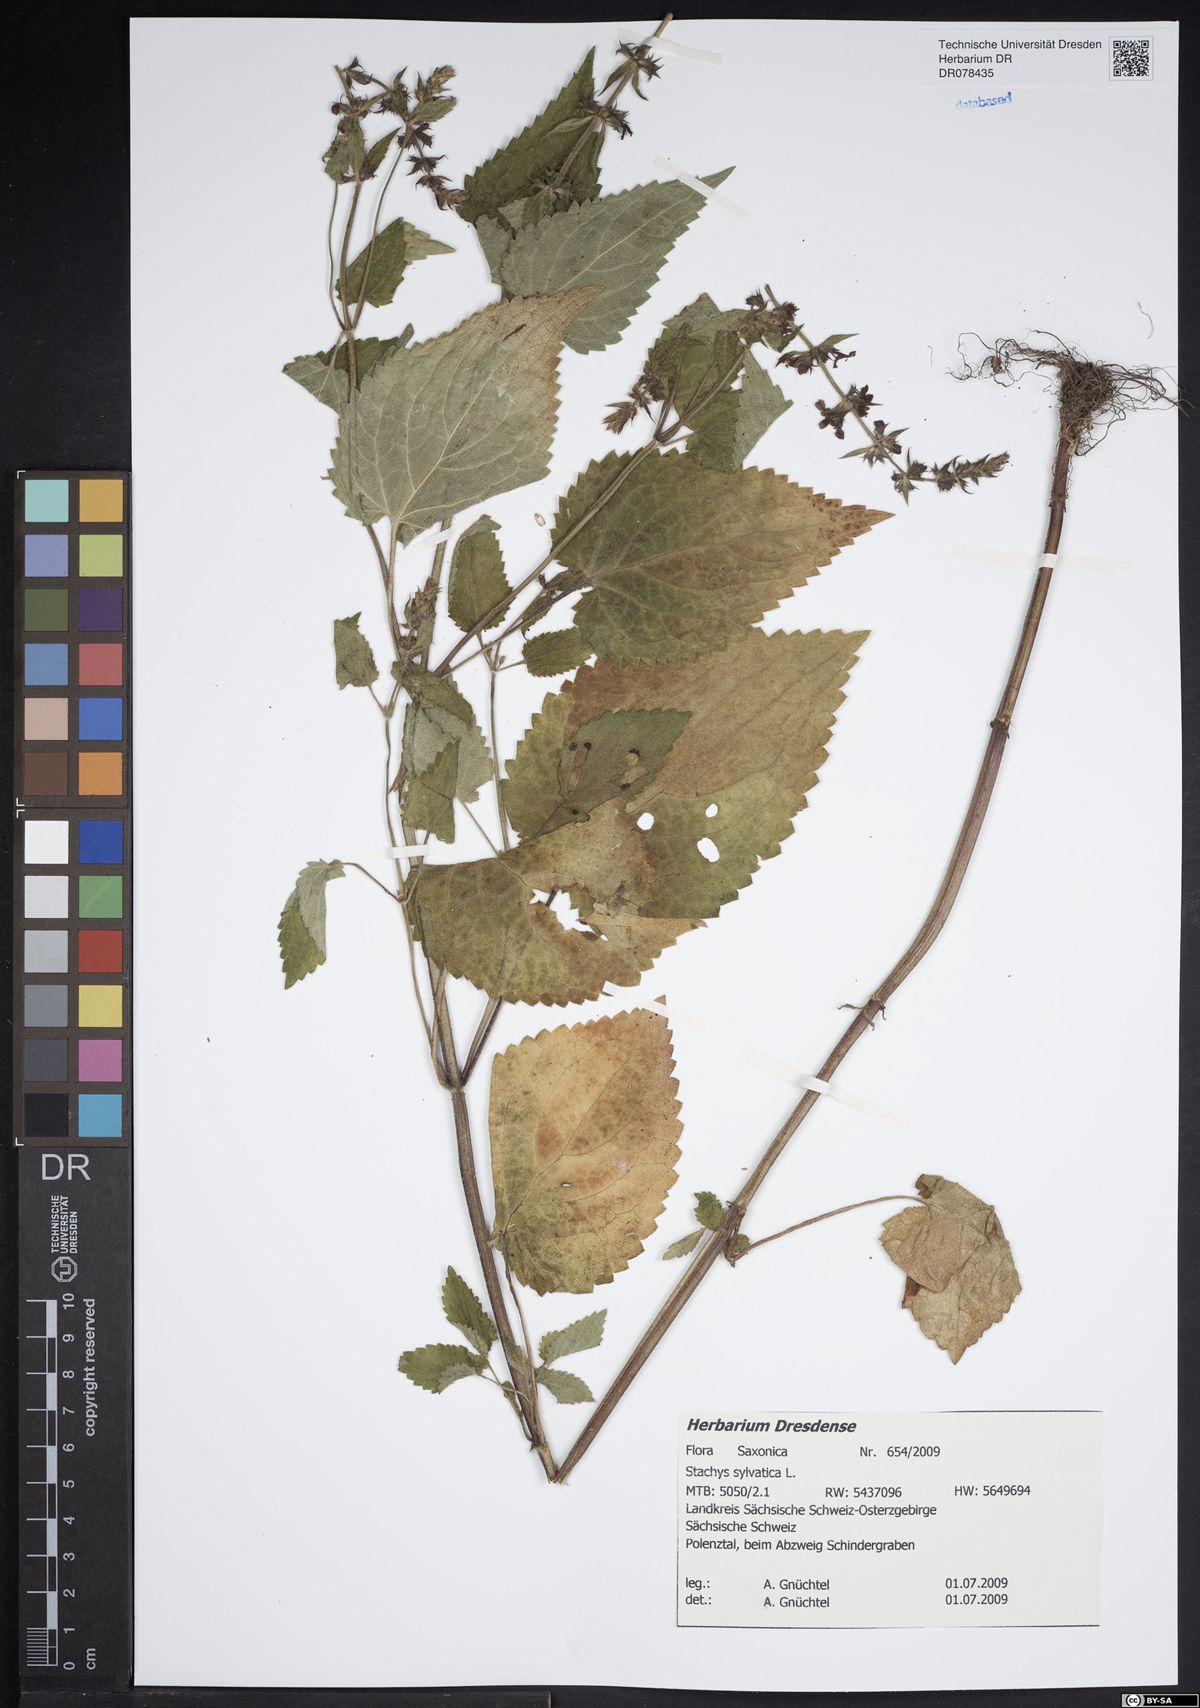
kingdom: Plantae
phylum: Tracheophyta
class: Magnoliopsida
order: Lamiales
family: Lamiaceae
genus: Stachys
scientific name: Stachys sylvatica
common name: Hedge woundwort
